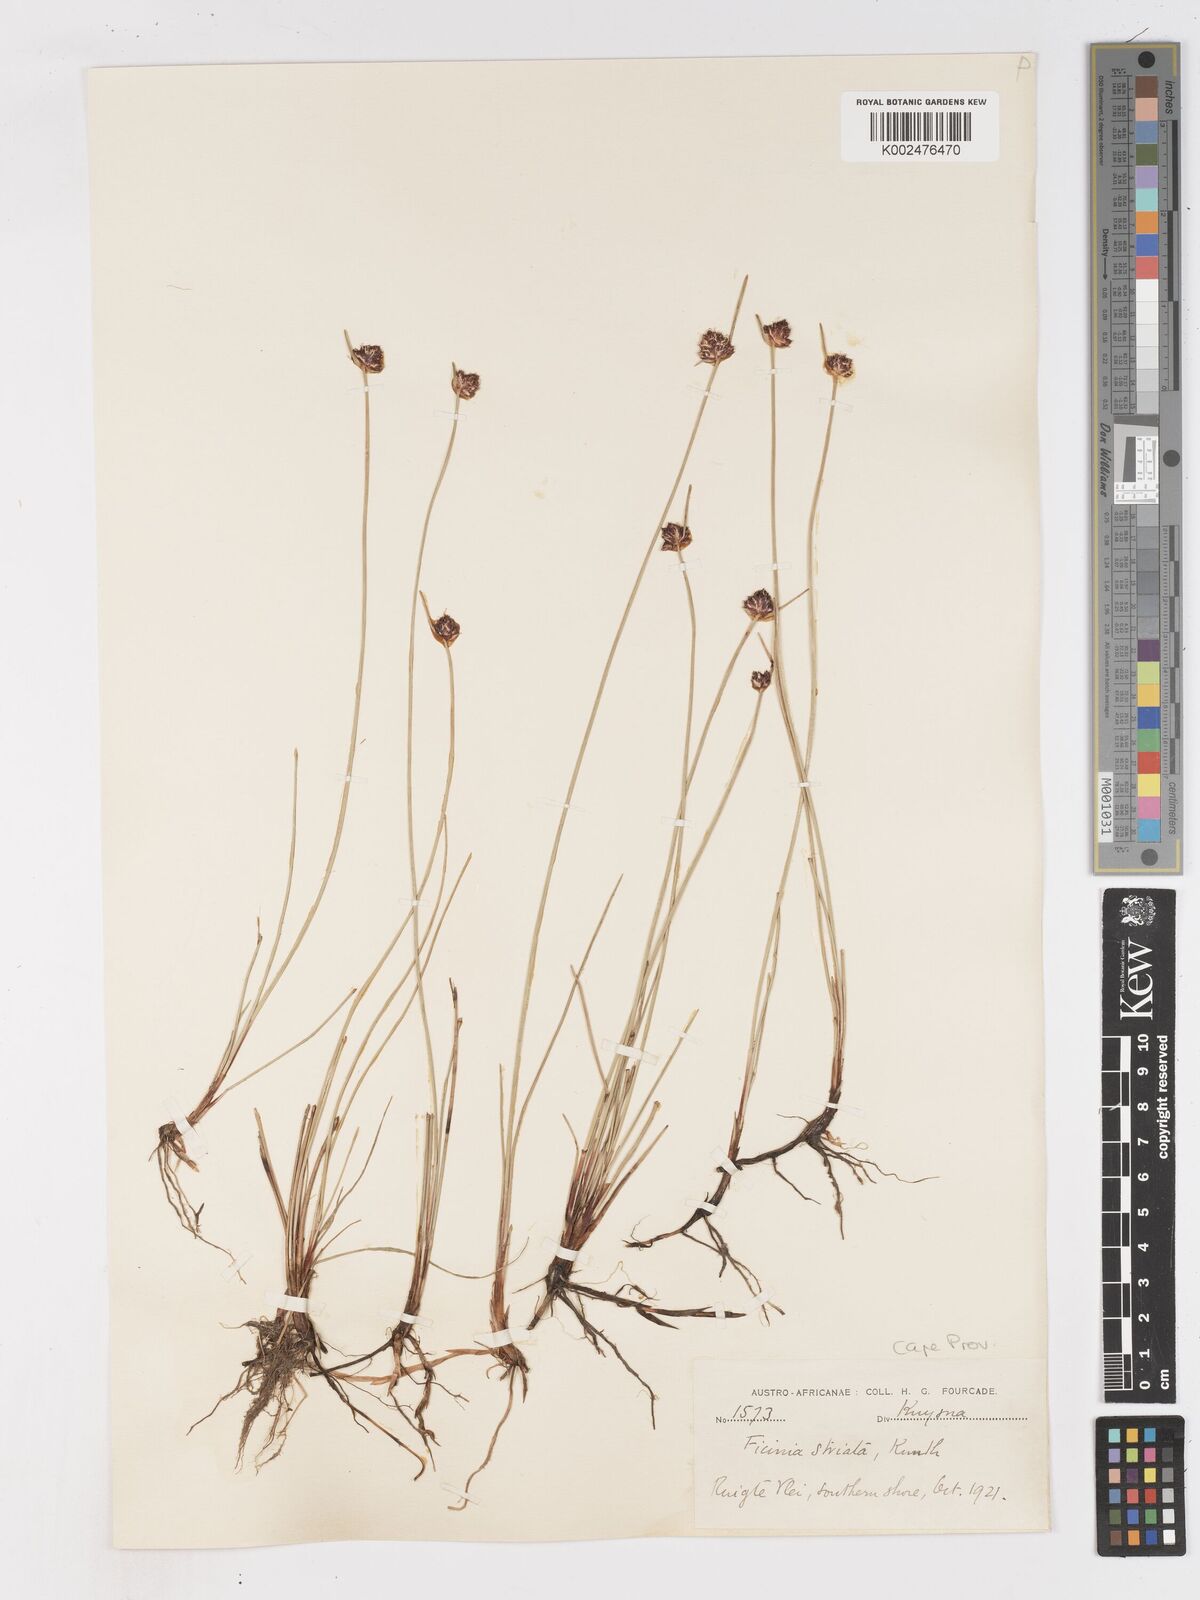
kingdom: Plantae
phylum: Tracheophyta
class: Liliopsida
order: Poales
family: Cyperaceae
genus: Ficinia
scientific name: Ficinia indica
